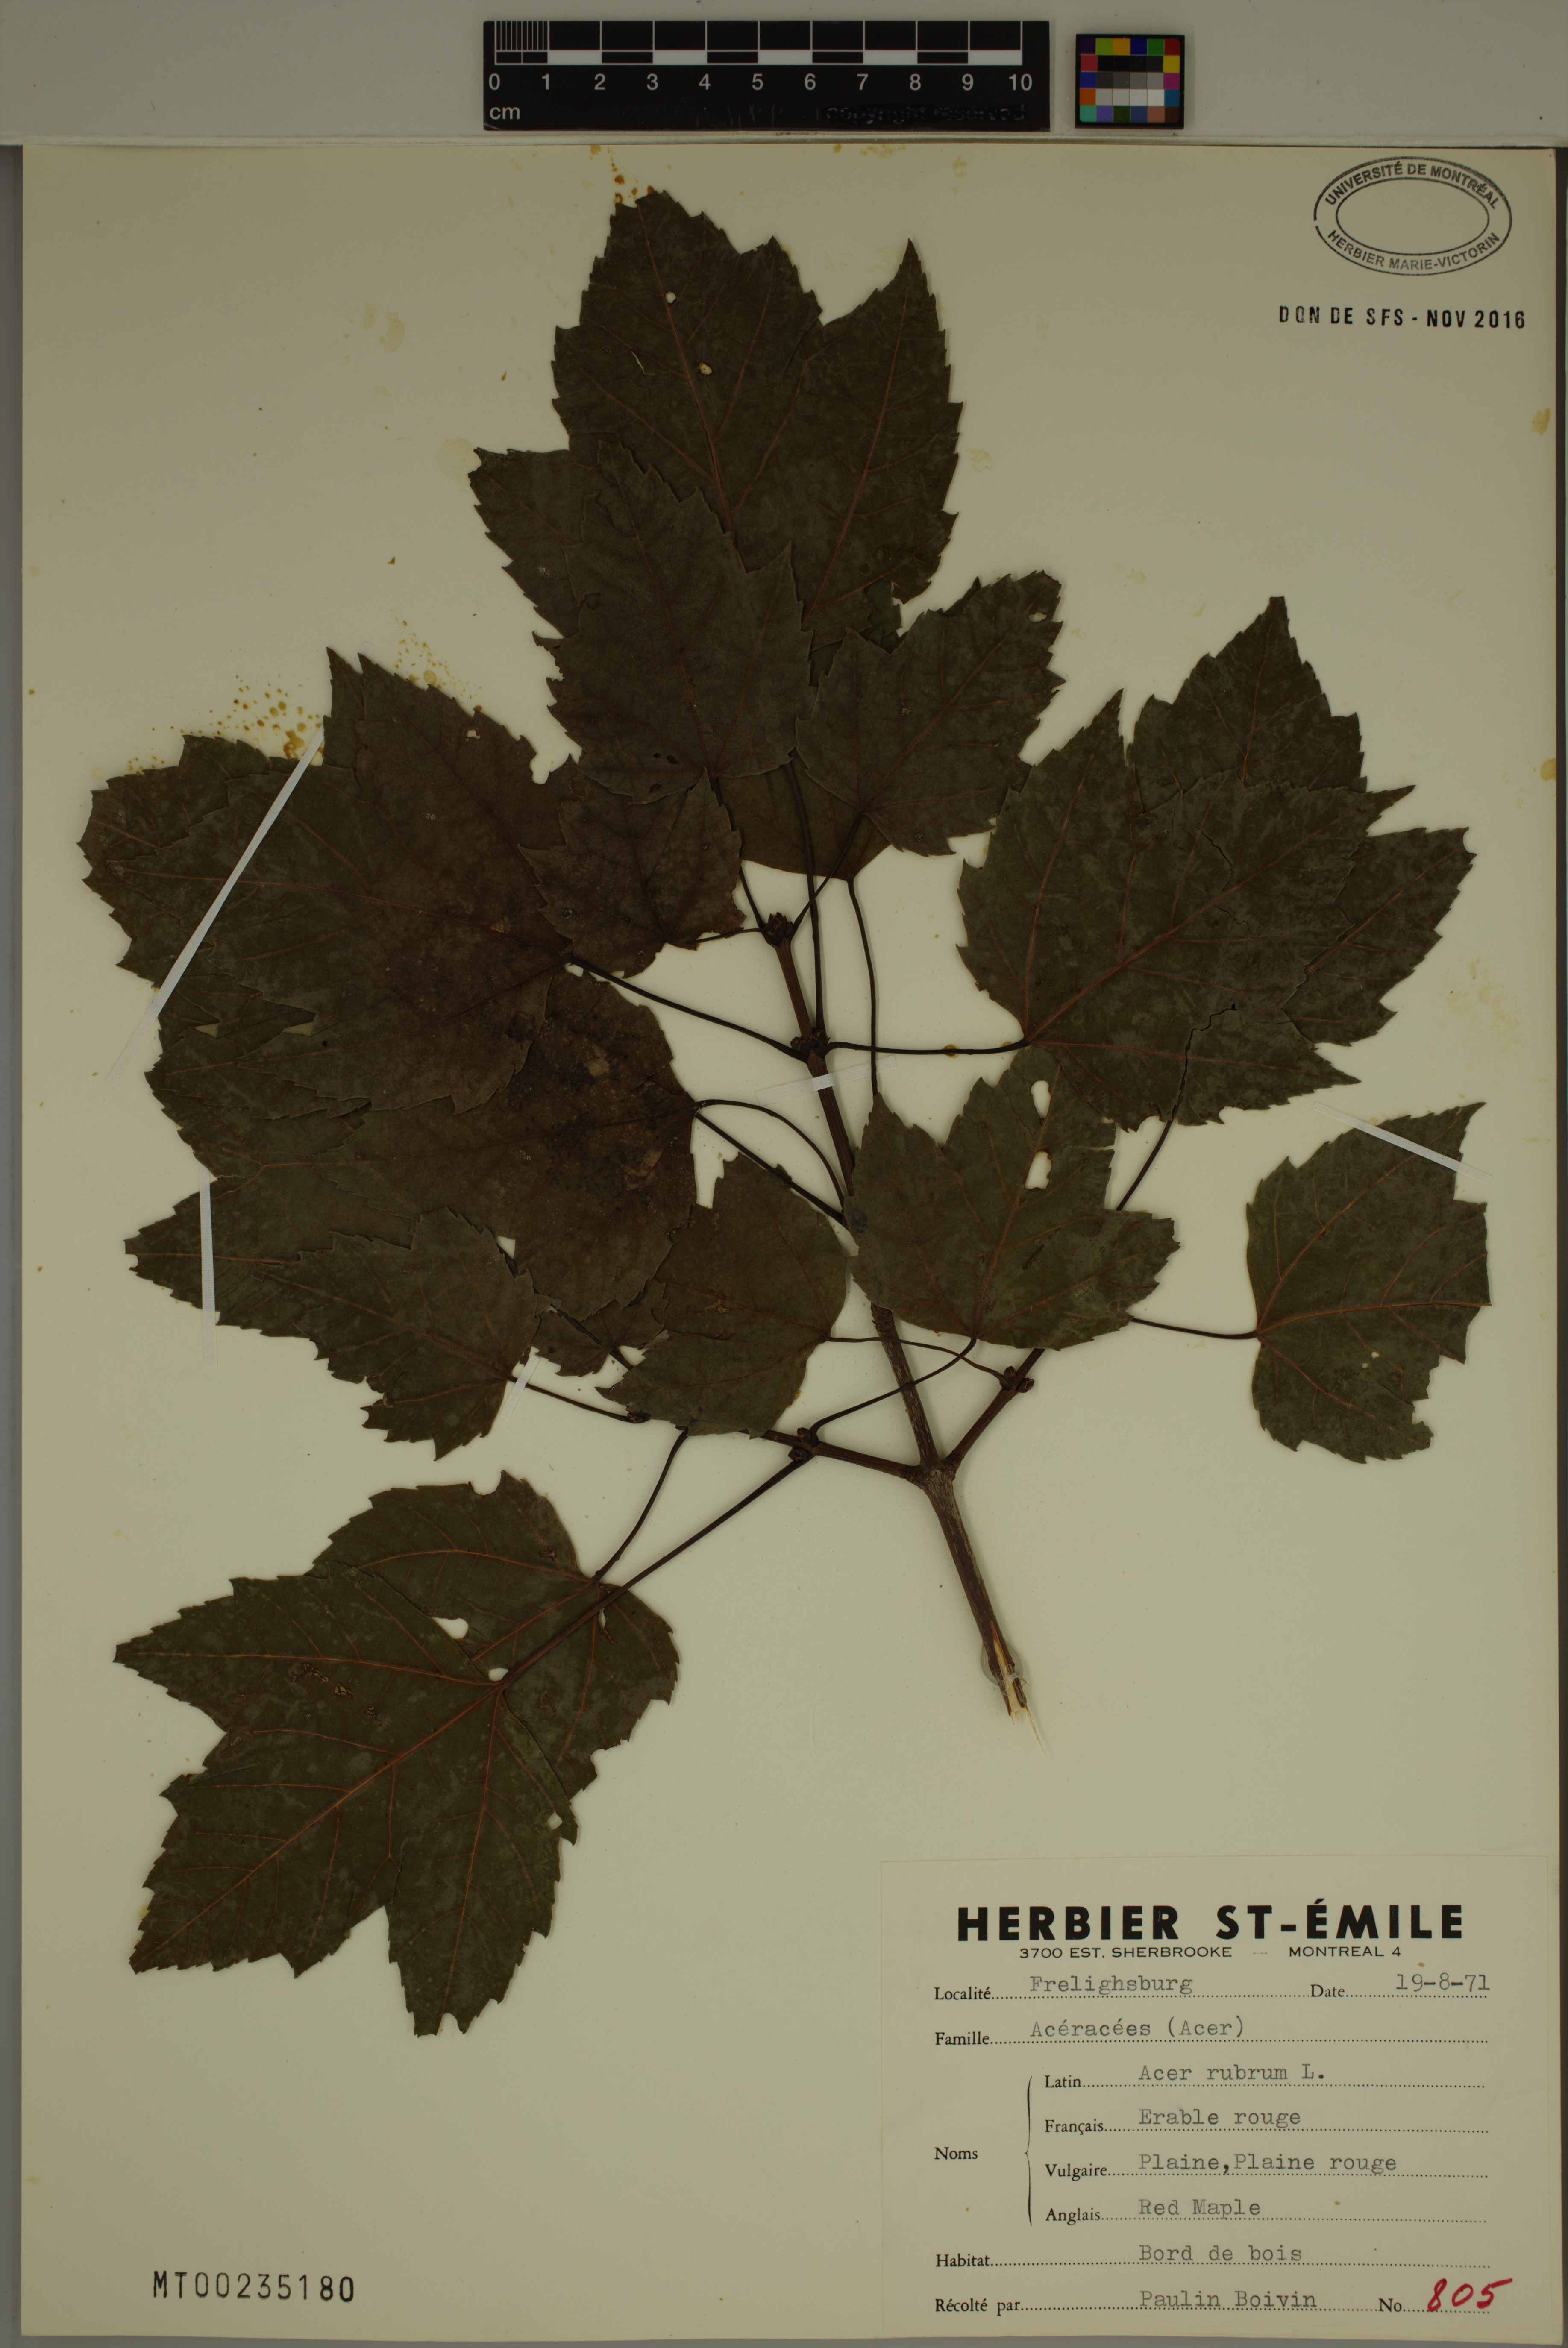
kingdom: Plantae
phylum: Tracheophyta
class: Magnoliopsida
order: Sapindales
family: Sapindaceae
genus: Acer
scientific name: Acer rubrum
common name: Red maple
